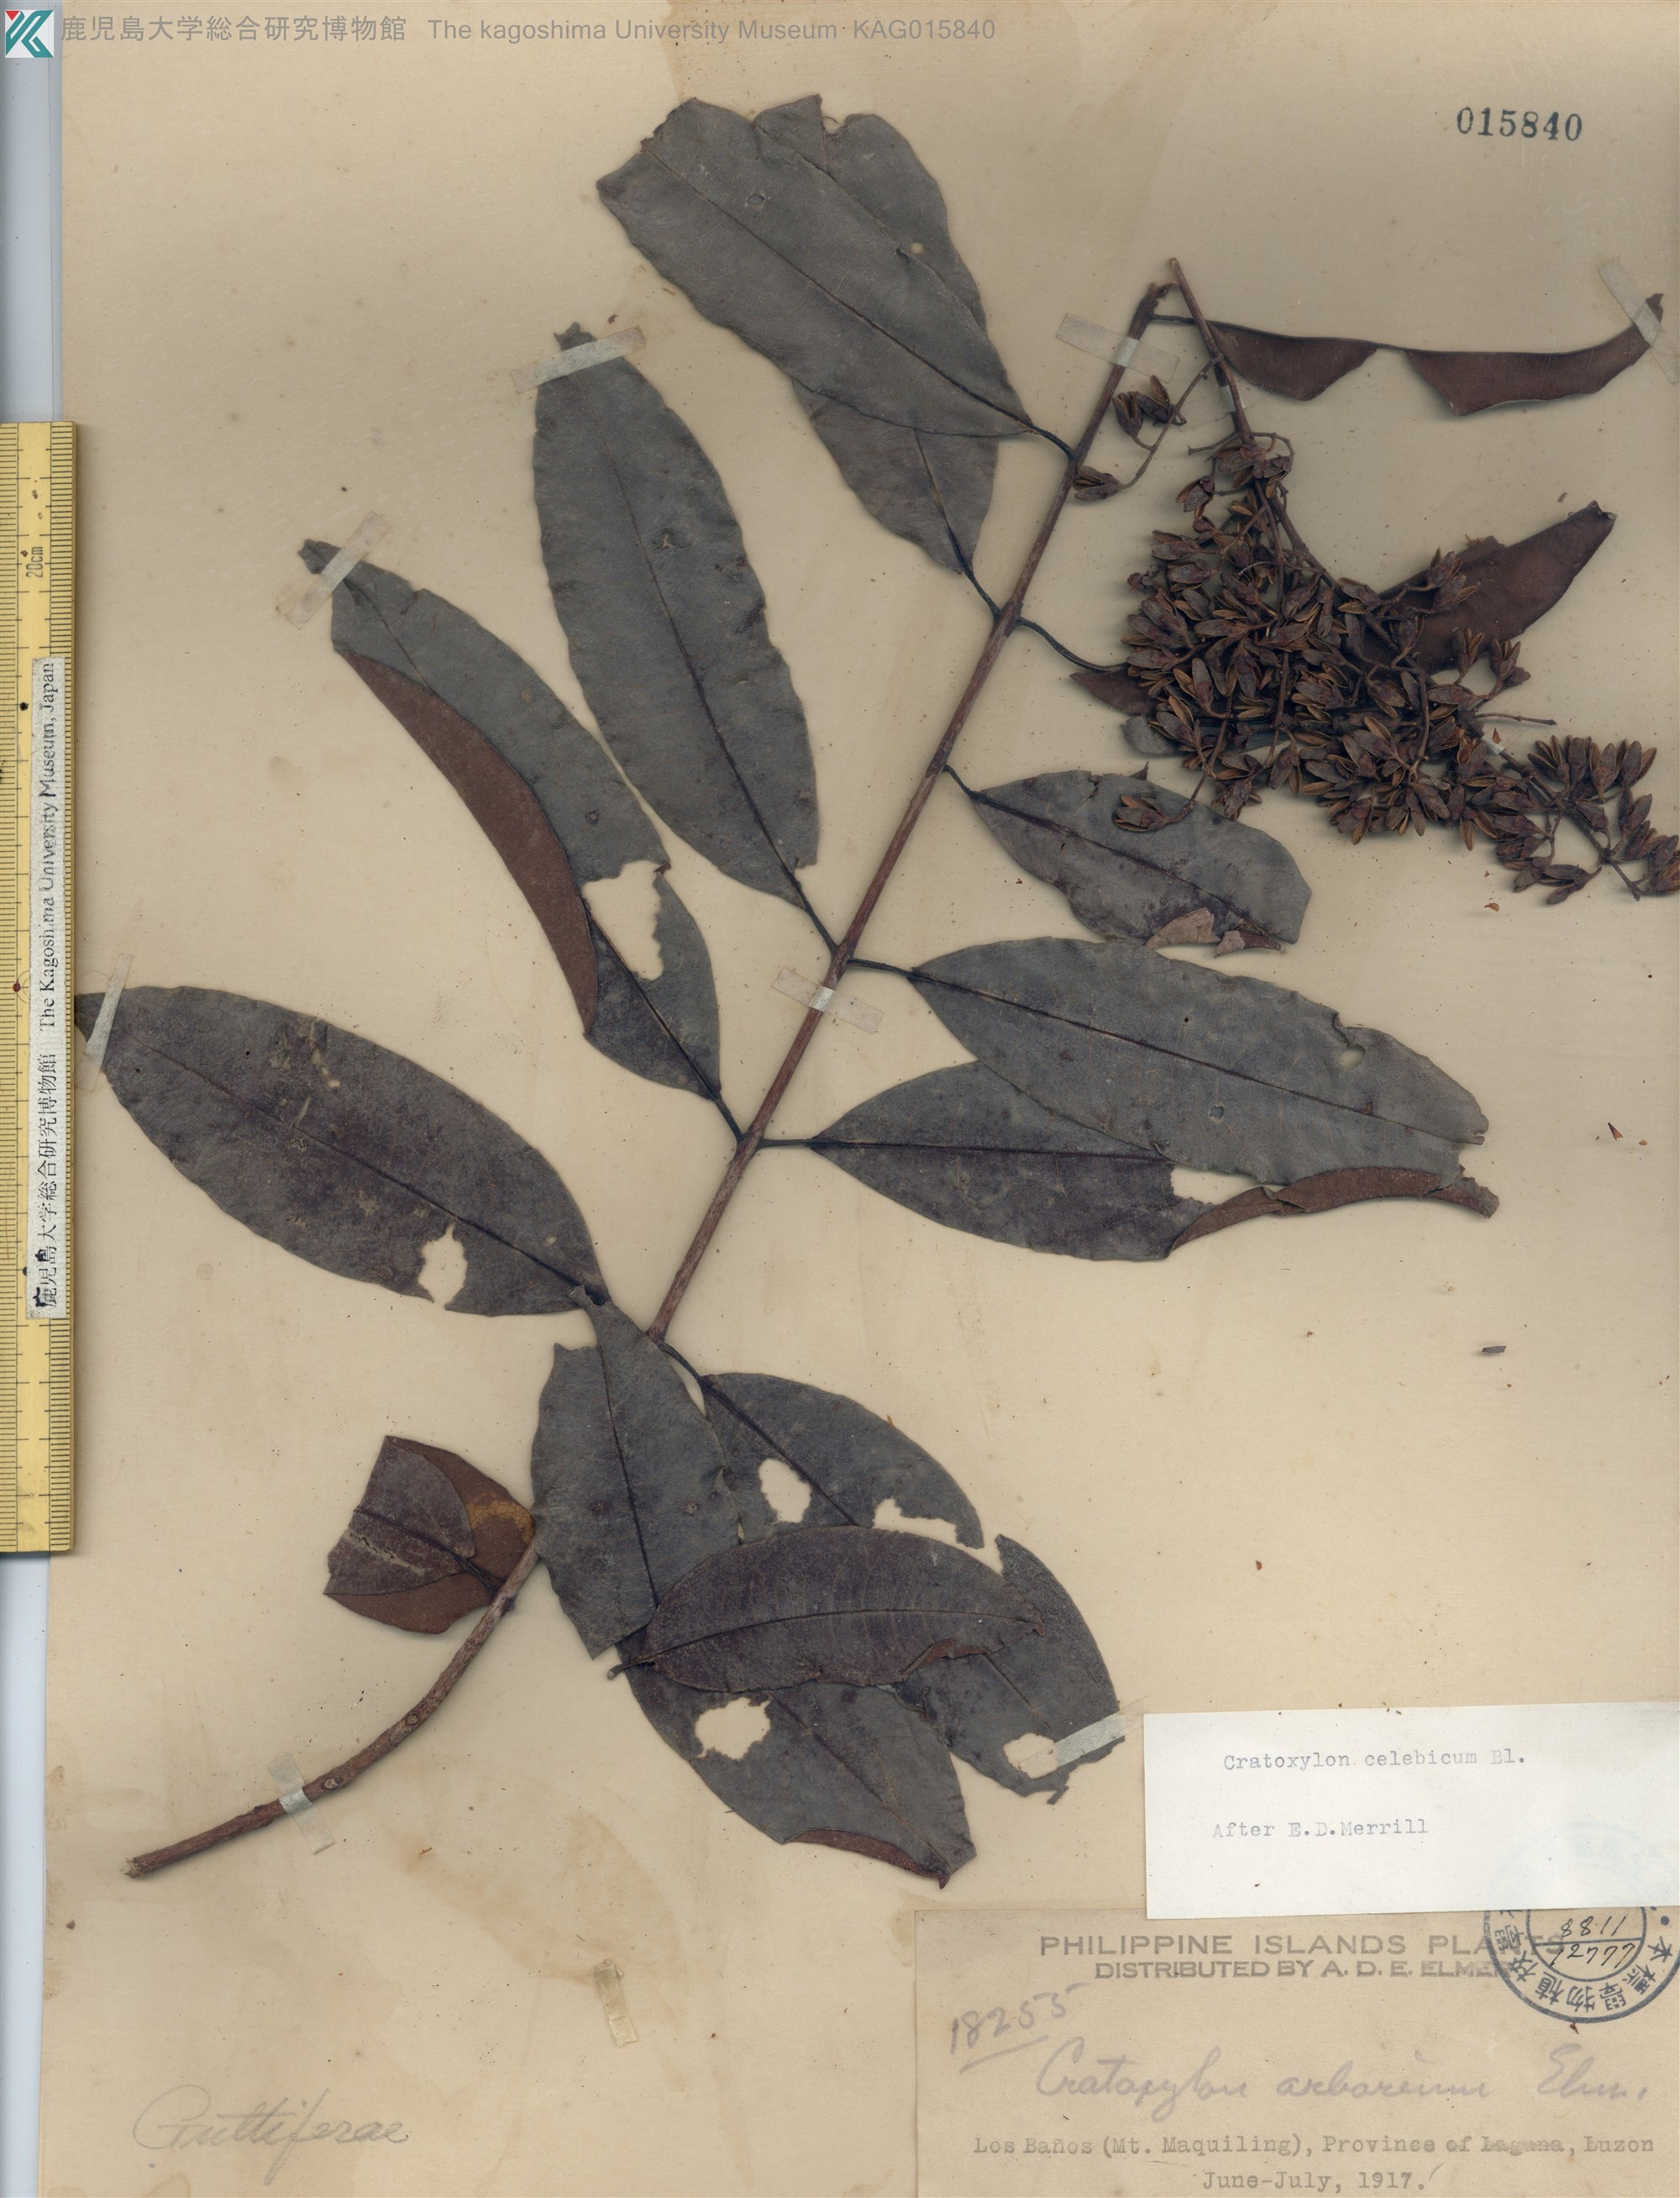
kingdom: Plantae
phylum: Tracheophyta
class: Magnoliopsida
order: Malpighiales
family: Hypericaceae
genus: Cratoxylum
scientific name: Cratoxylum sumatranum
